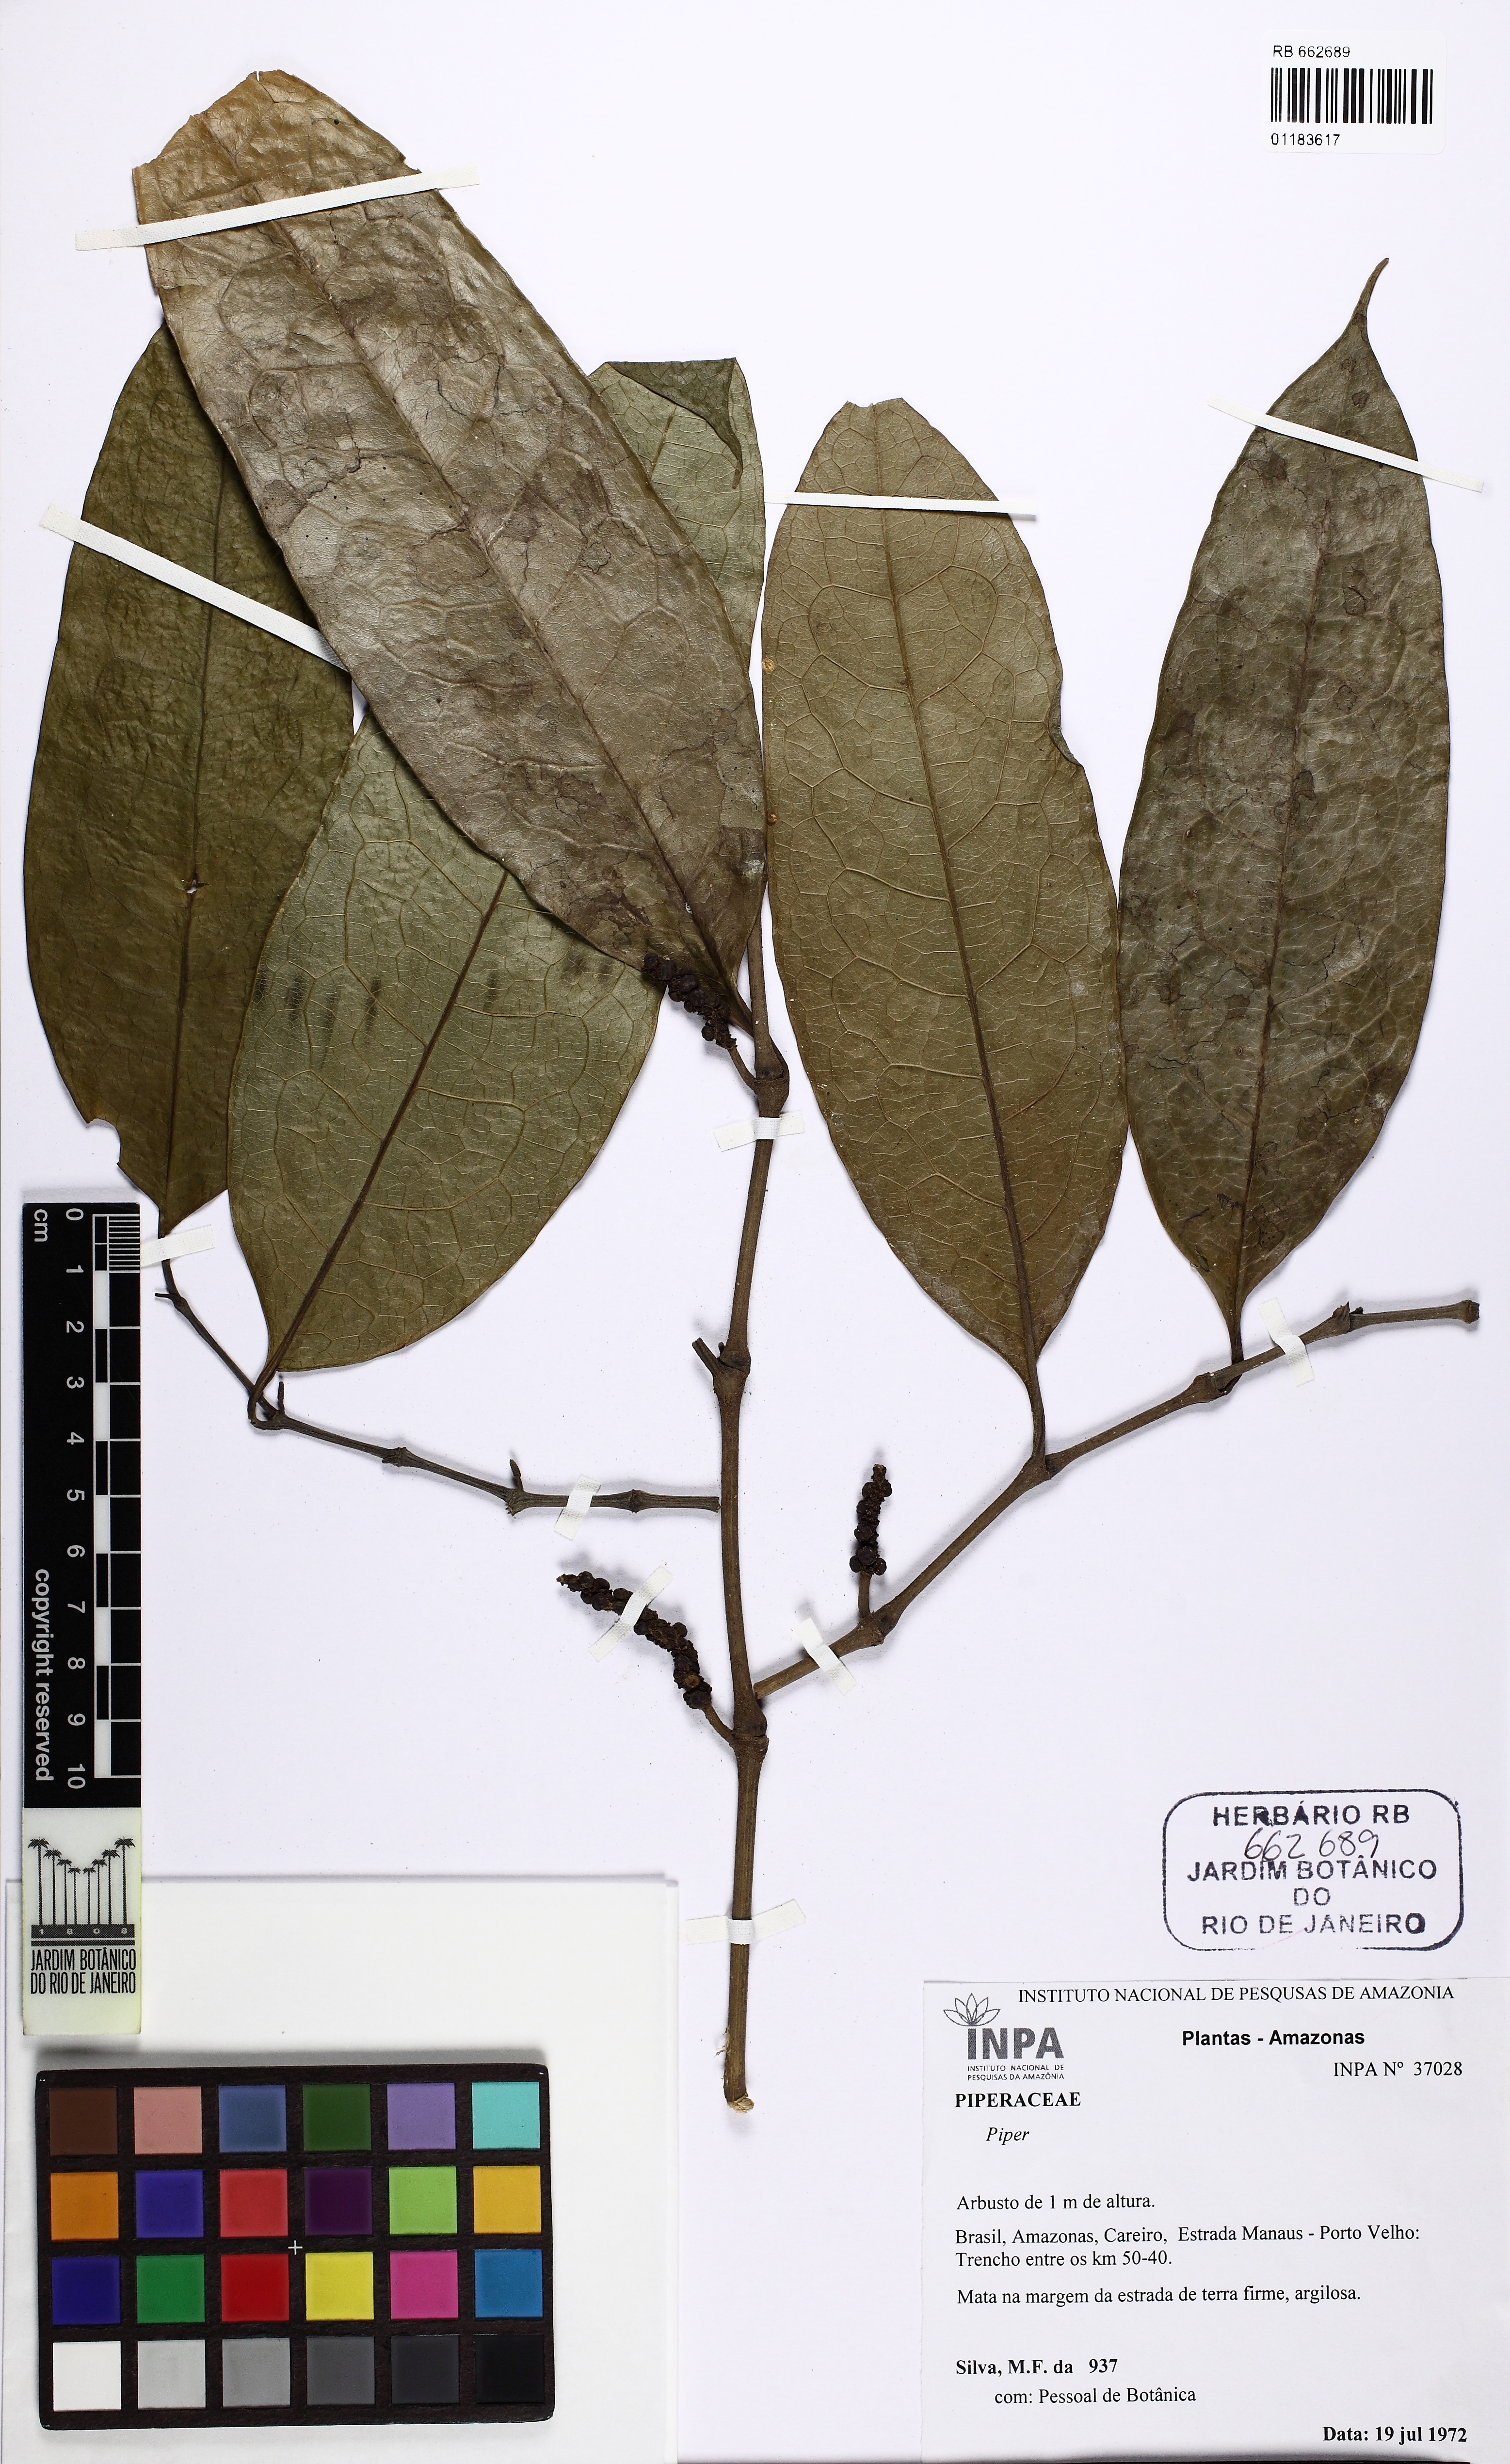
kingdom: Plantae
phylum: Tracheophyta
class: Magnoliopsida
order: Piperales
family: Piperaceae
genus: Piper
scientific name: Piper
